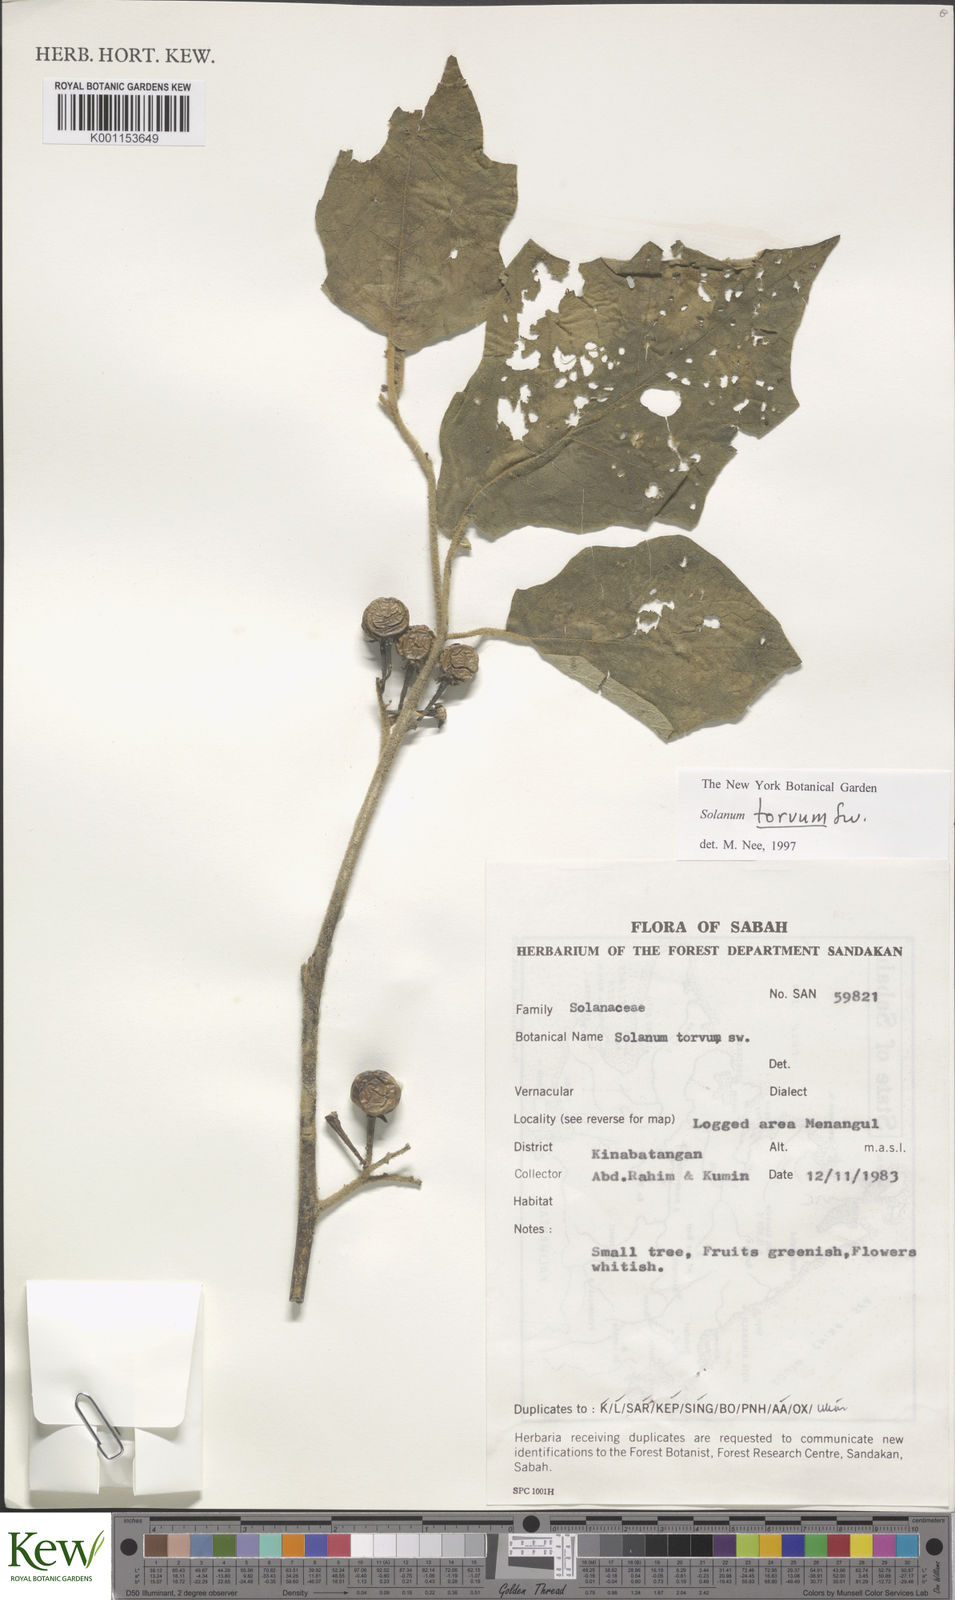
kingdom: Plantae
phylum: Tracheophyta
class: Magnoliopsida
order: Solanales
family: Solanaceae
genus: Solanum
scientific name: Solanum torvum
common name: Turkey berry
